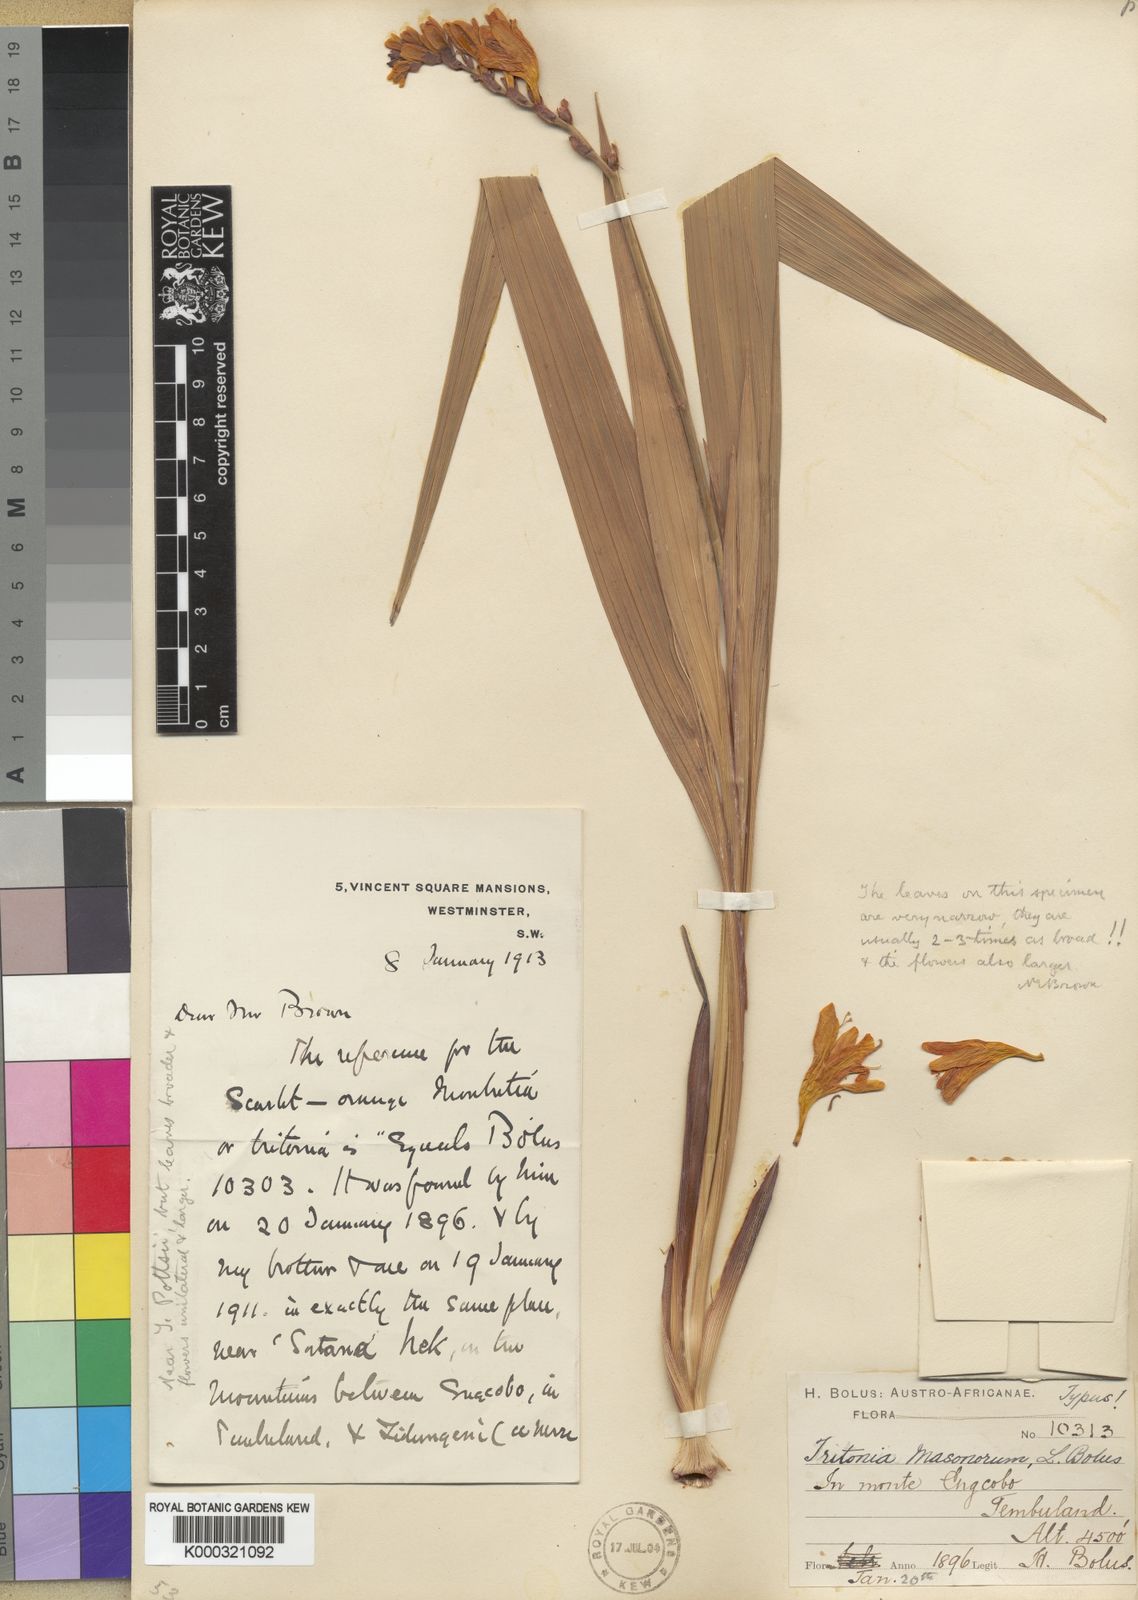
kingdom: Plantae
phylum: Tracheophyta
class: Liliopsida
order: Asparagales
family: Iridaceae
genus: Crocosmia
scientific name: Crocosmia masoniorum
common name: Giant montbretia
